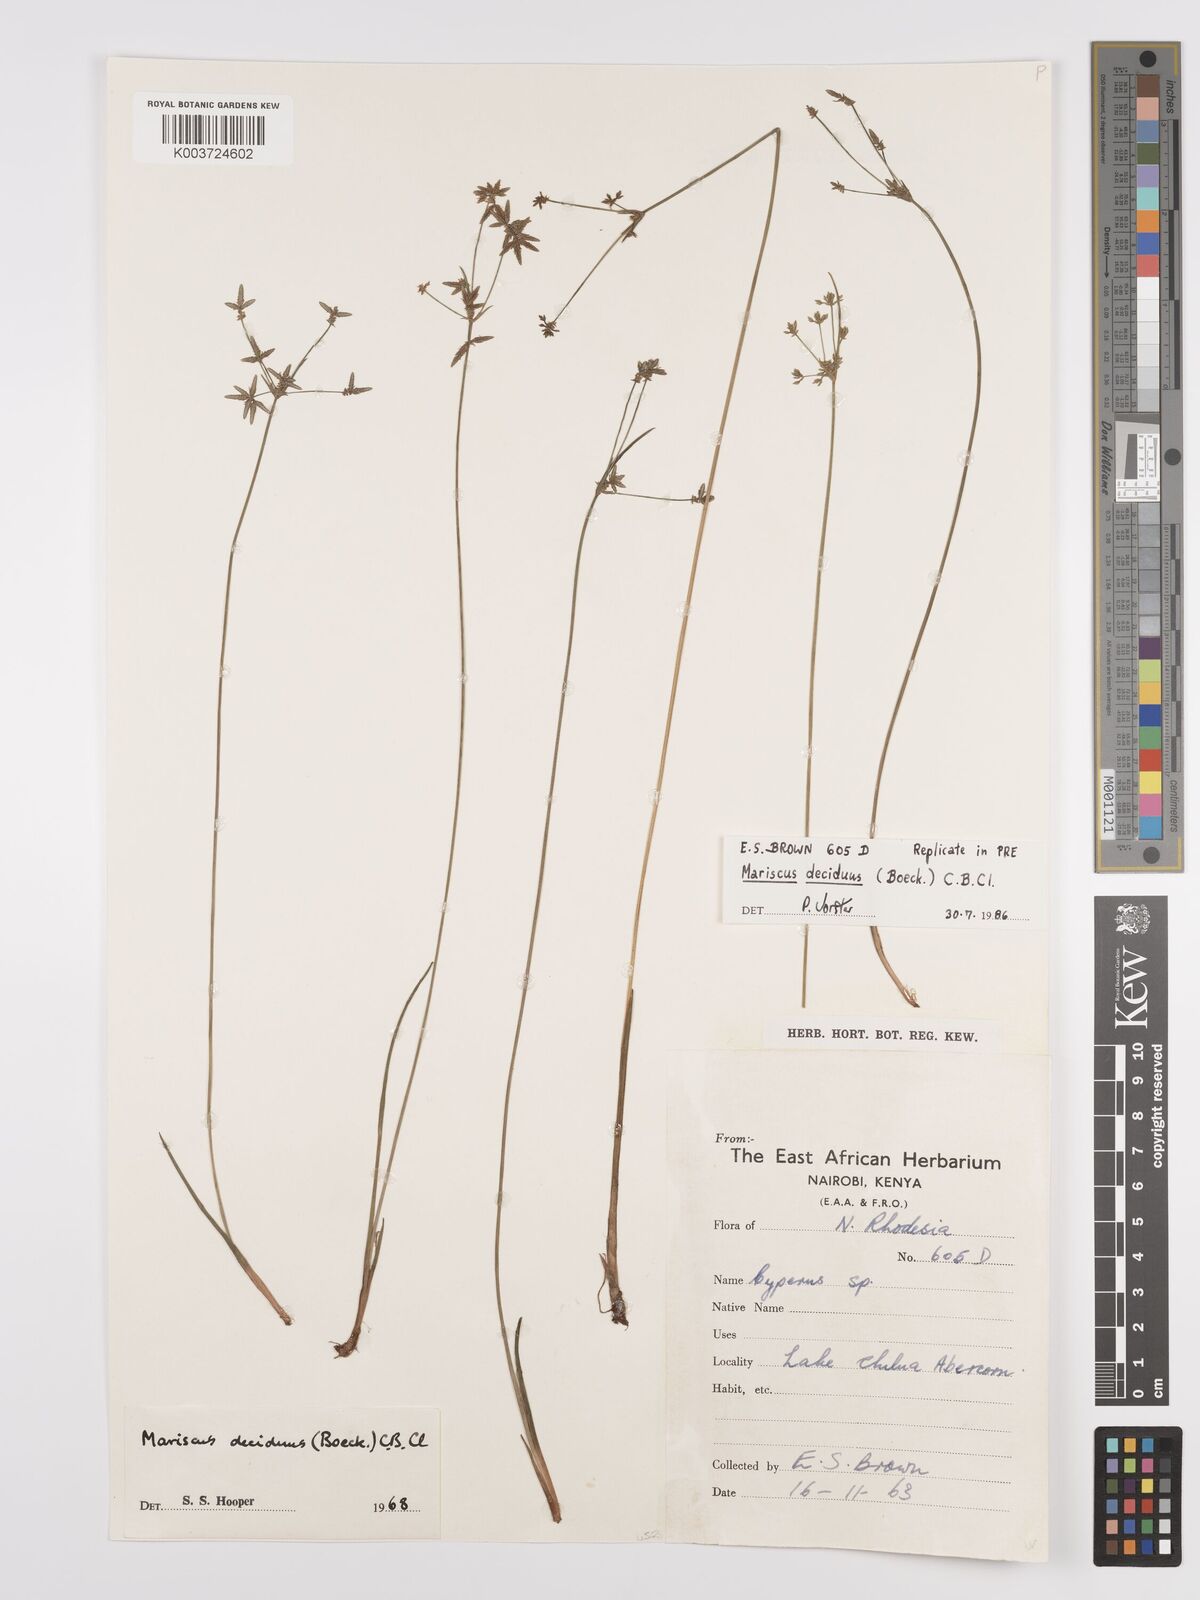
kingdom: Plantae
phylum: Tracheophyta
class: Liliopsida
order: Poales
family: Cyperaceae
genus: Cyperus
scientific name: Cyperus deciduus
